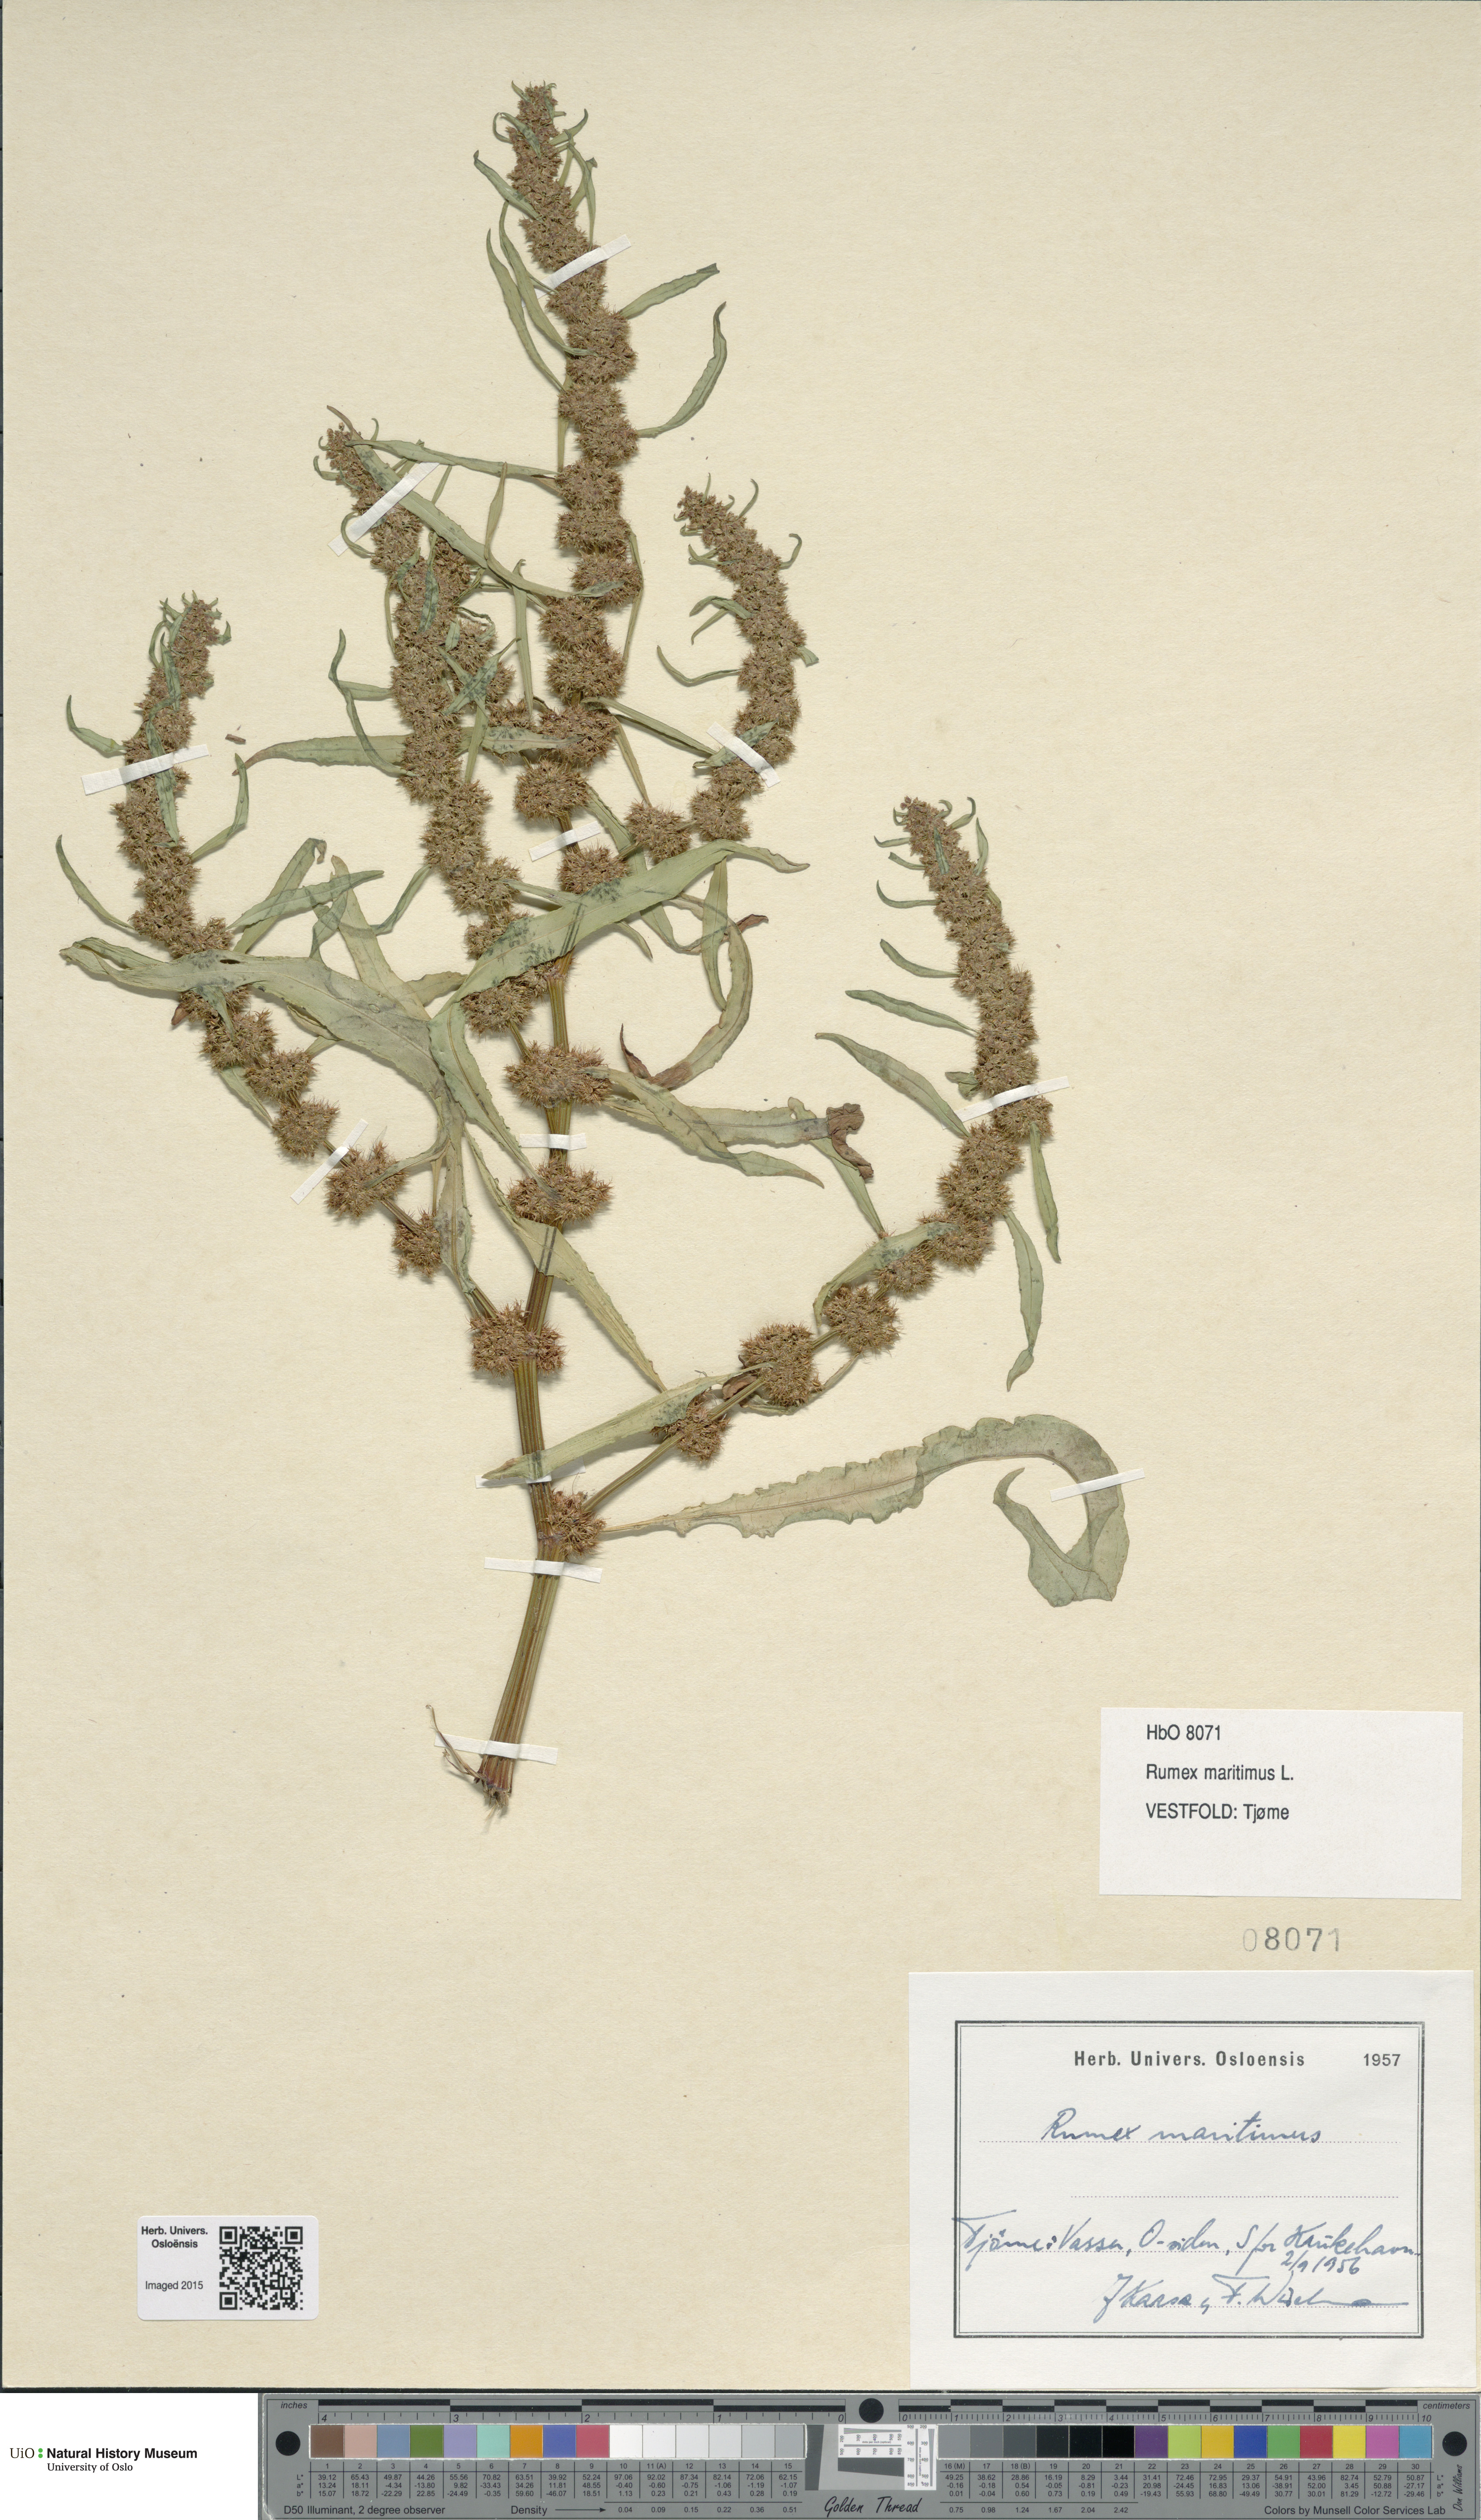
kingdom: Plantae
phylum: Tracheophyta
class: Magnoliopsida
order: Caryophyllales
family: Polygonaceae
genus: Rumex
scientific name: Rumex maritimus
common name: Golden dock
